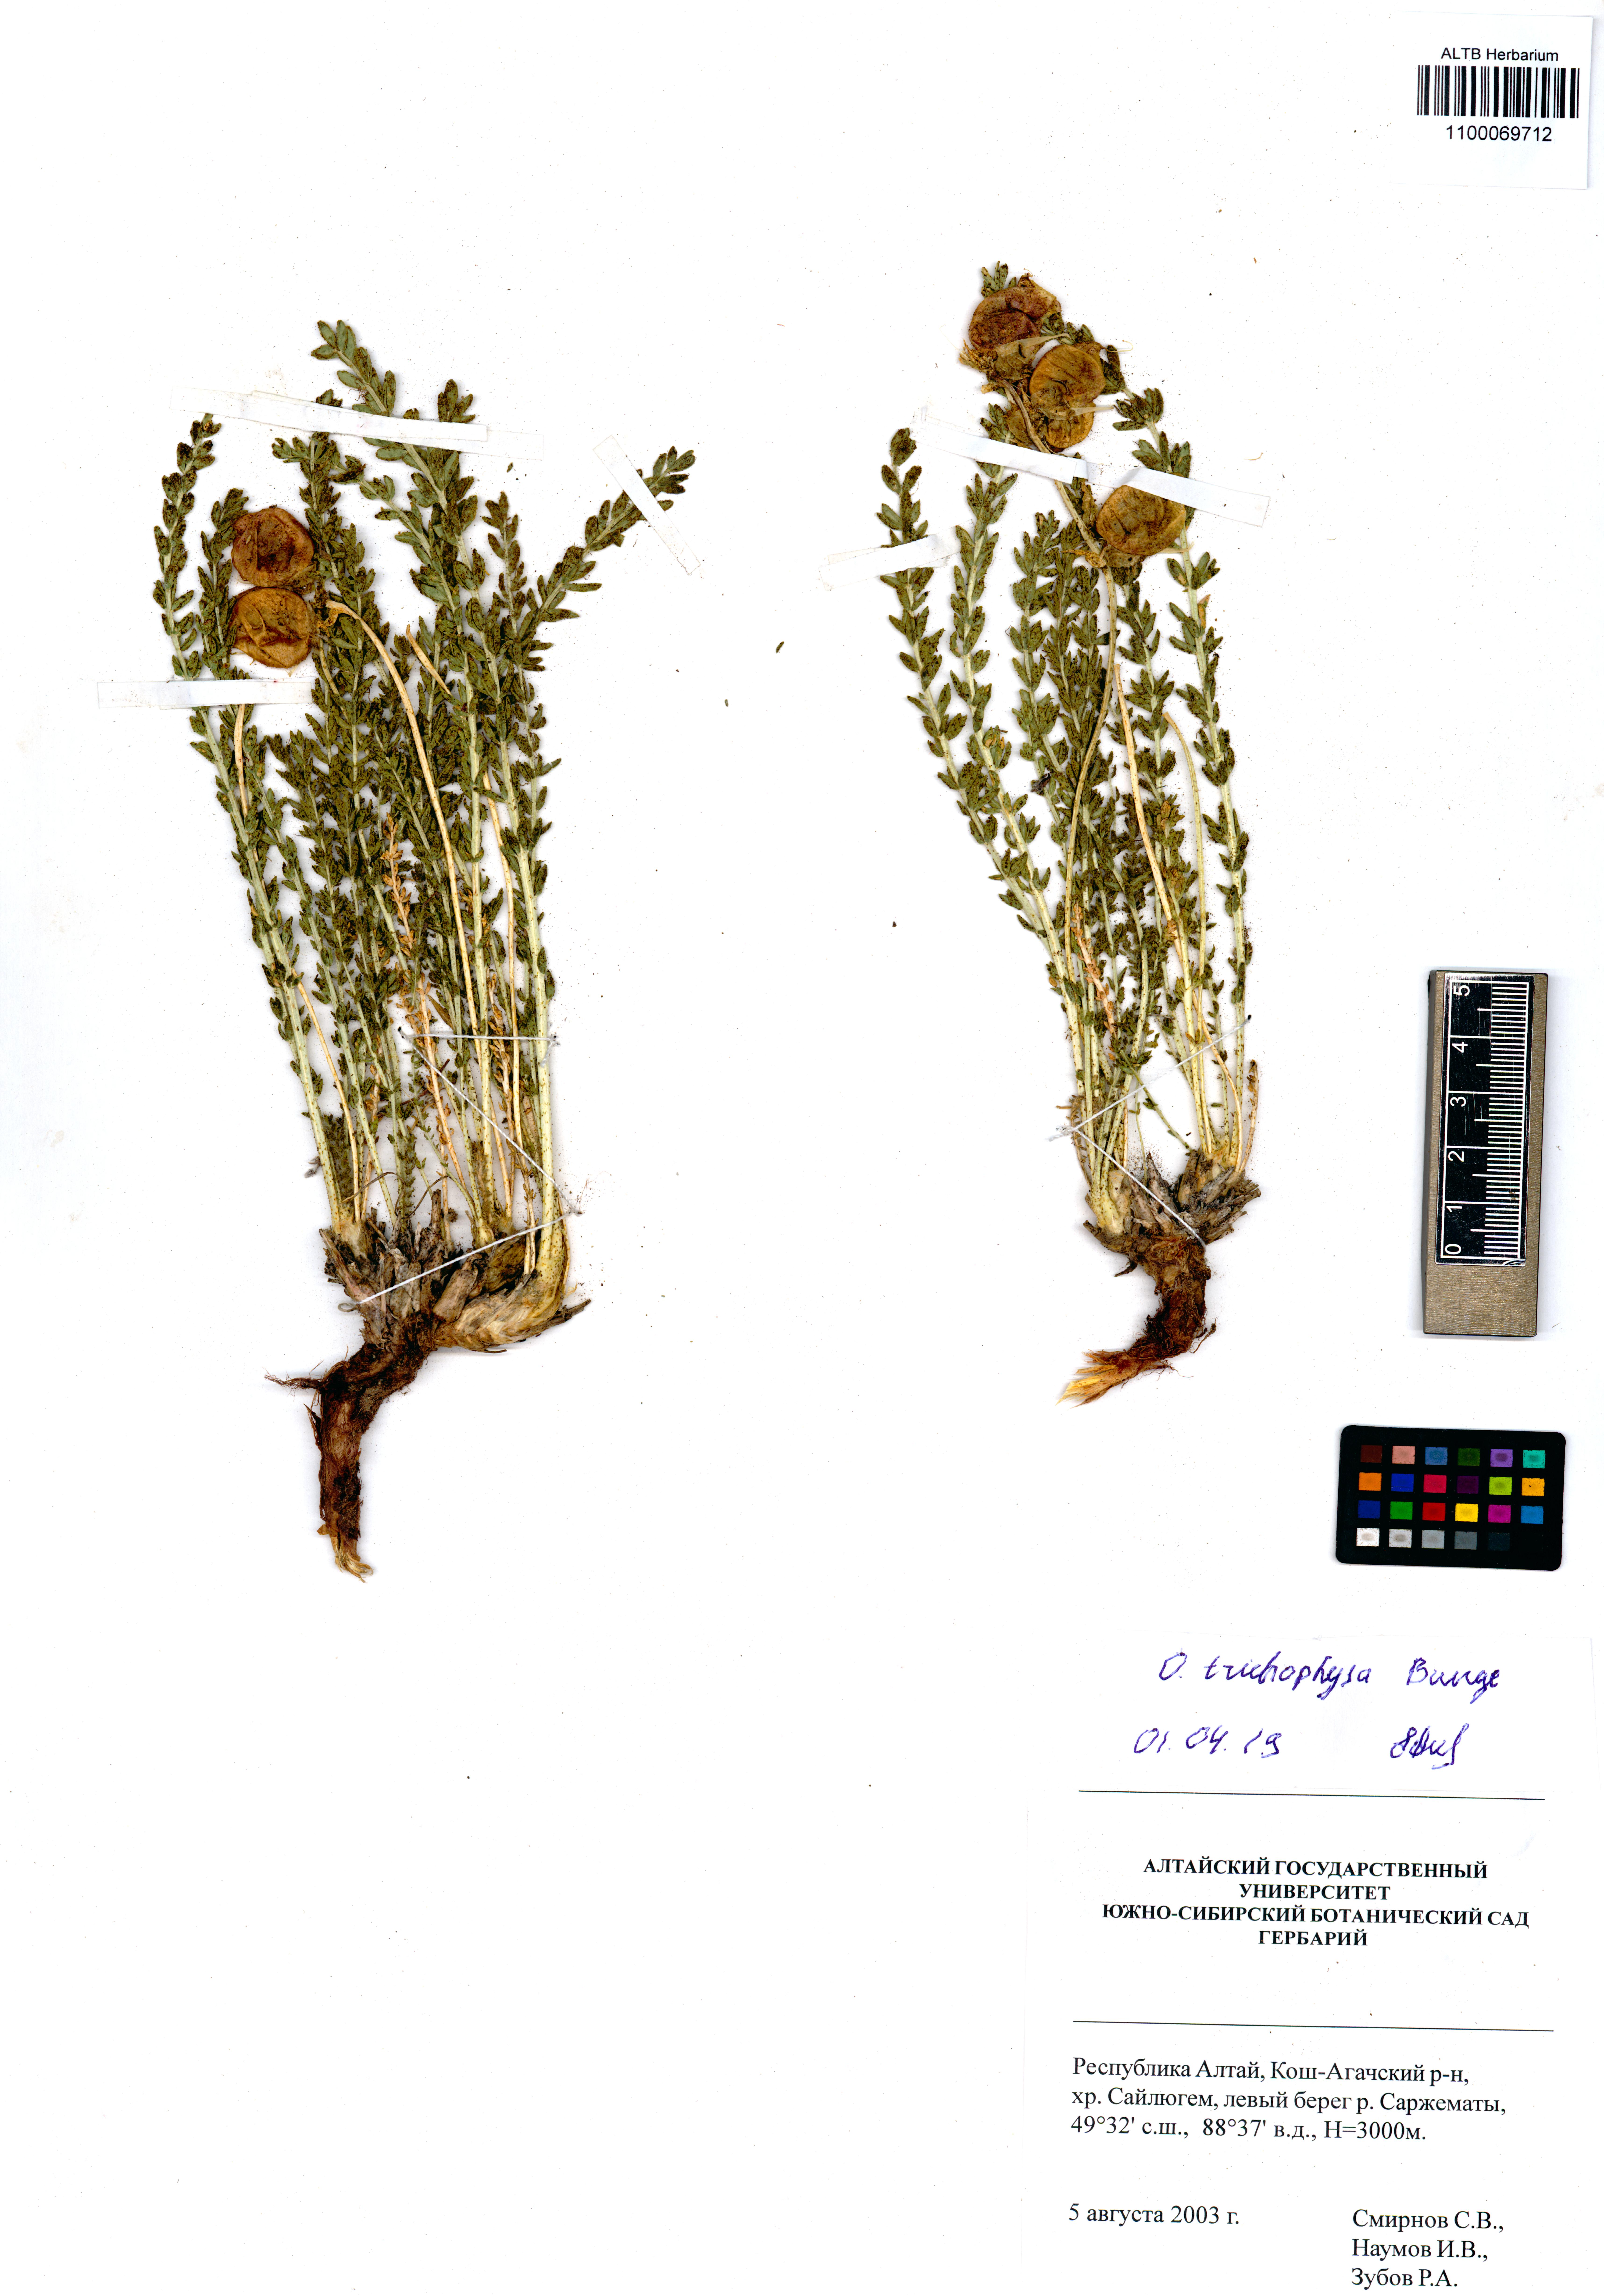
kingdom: Plantae
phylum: Tracheophyta
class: Magnoliopsida
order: Fabales
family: Fabaceae
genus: Oxytropis
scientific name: Oxytropis trichophysa
